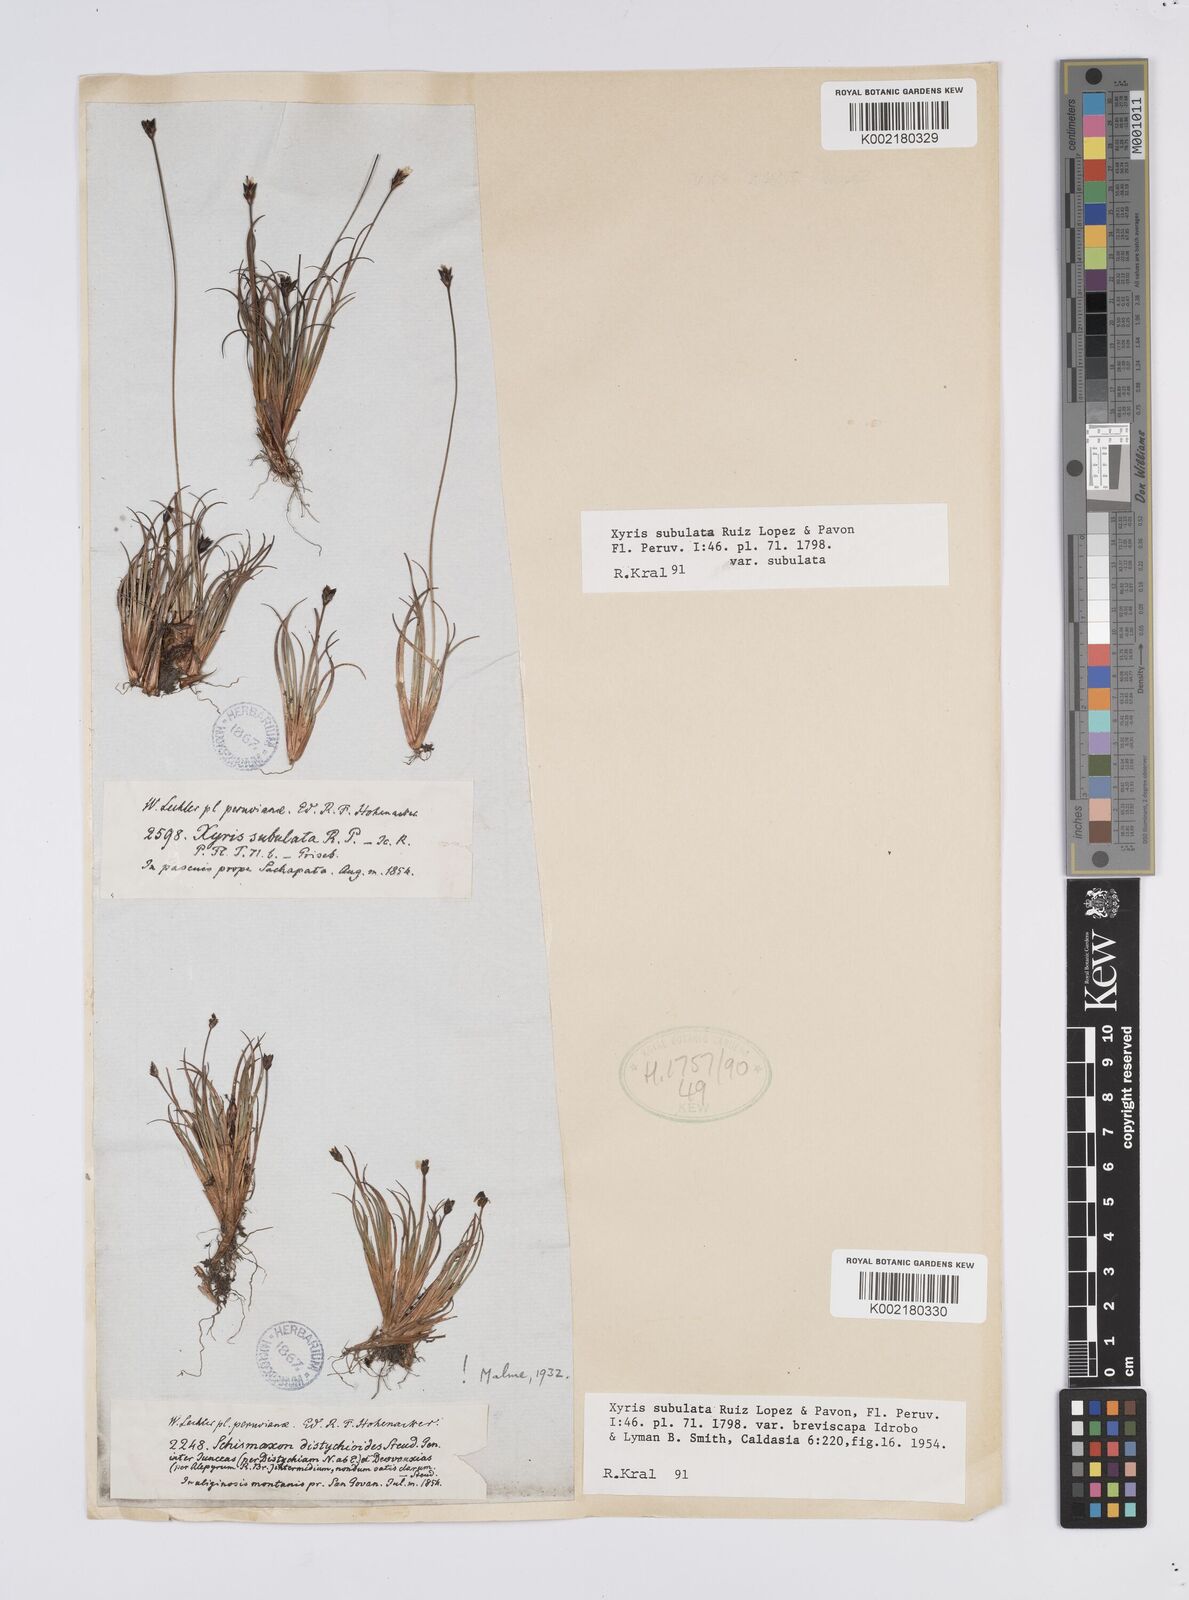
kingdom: Plantae
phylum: Tracheophyta
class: Liliopsida
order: Poales
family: Xyridaceae
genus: Xyris
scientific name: Xyris subulata
